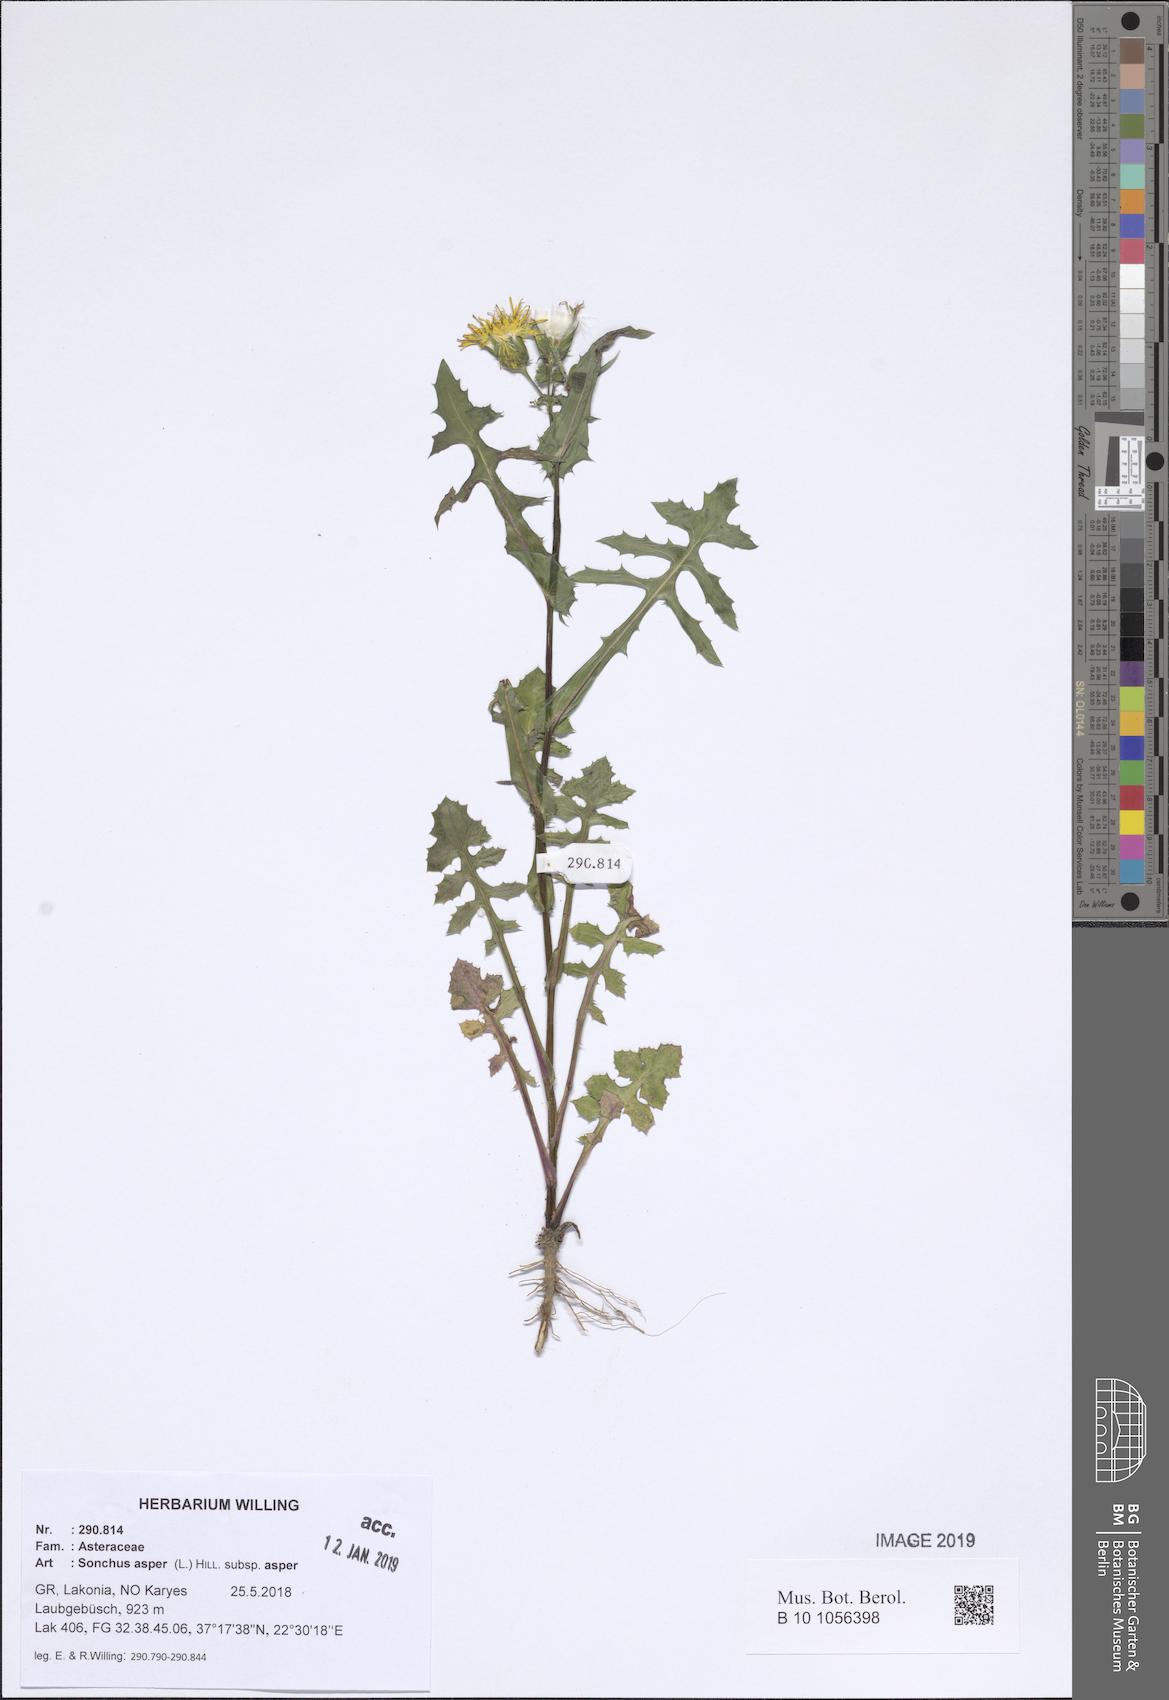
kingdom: Plantae
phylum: Tracheophyta
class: Magnoliopsida
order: Asterales
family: Asteraceae
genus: Sonchus
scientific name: Sonchus asper
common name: Prickly sow-thistle
